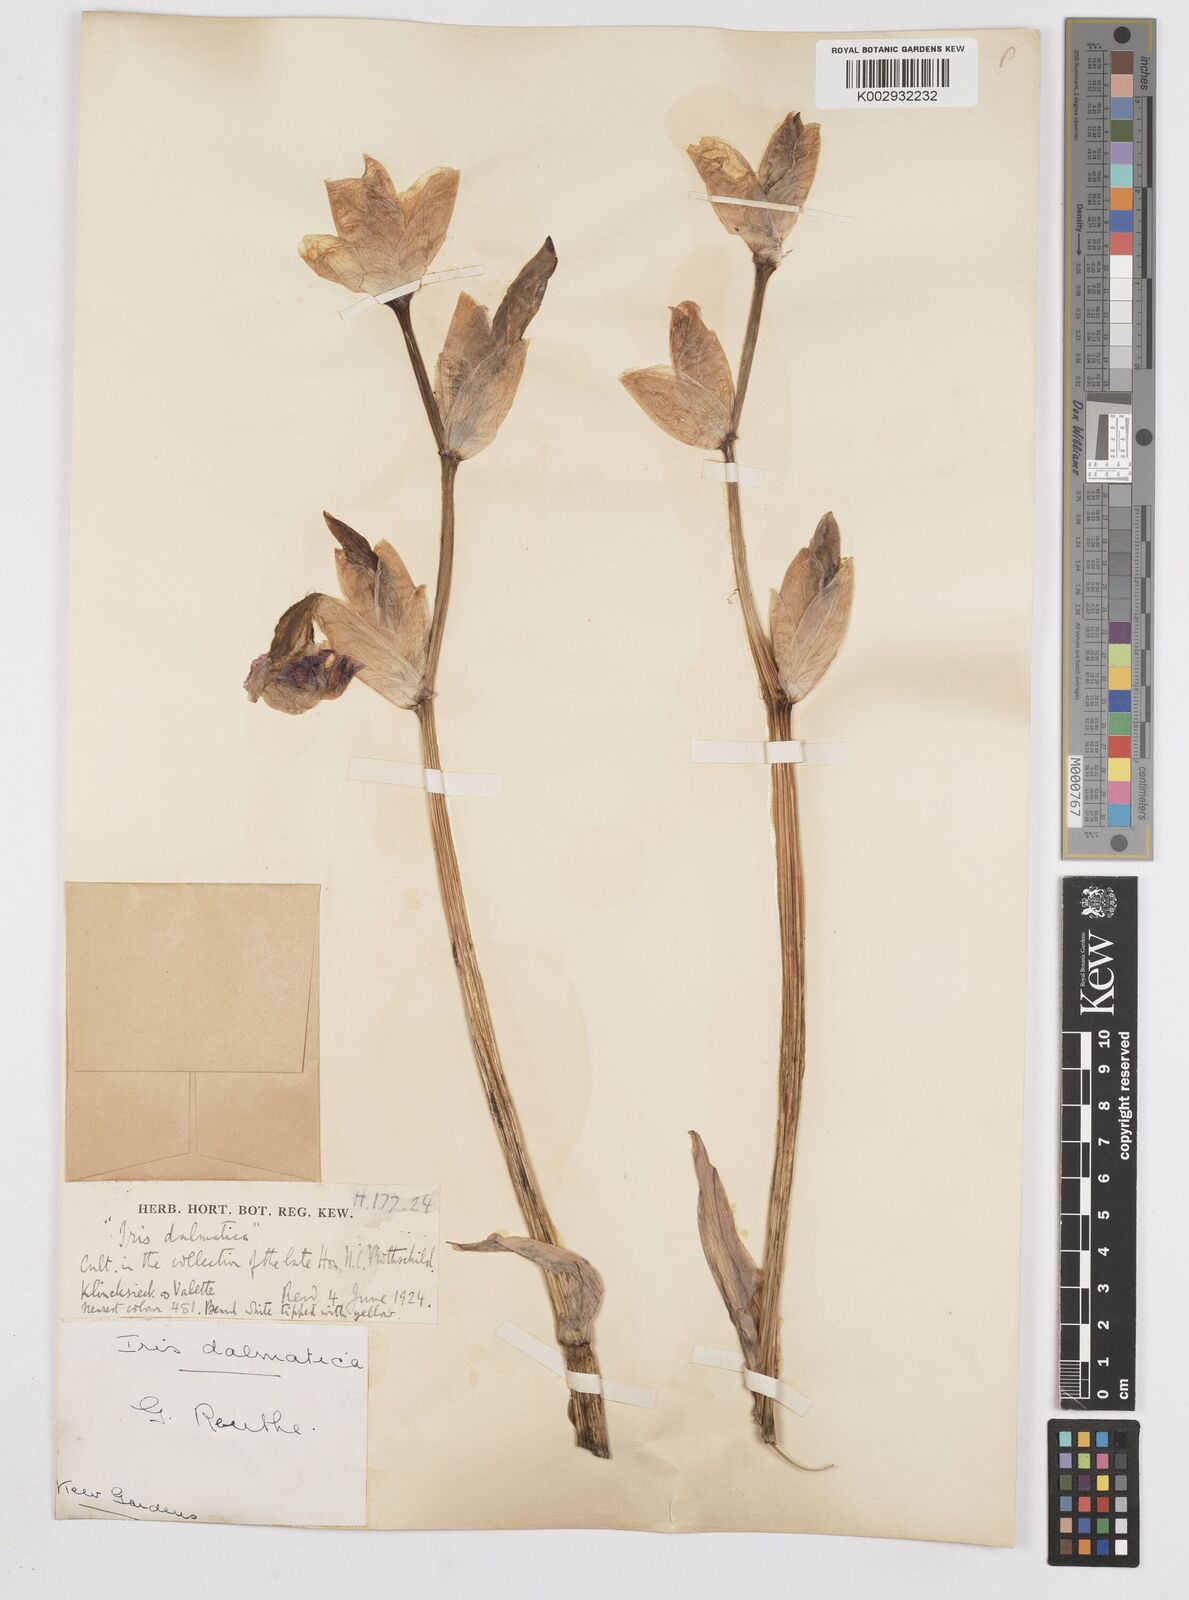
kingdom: Plantae
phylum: Tracheophyta
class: Liliopsida
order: Asparagales
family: Iridaceae
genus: Iris
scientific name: Iris pallida
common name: Sweet iris
